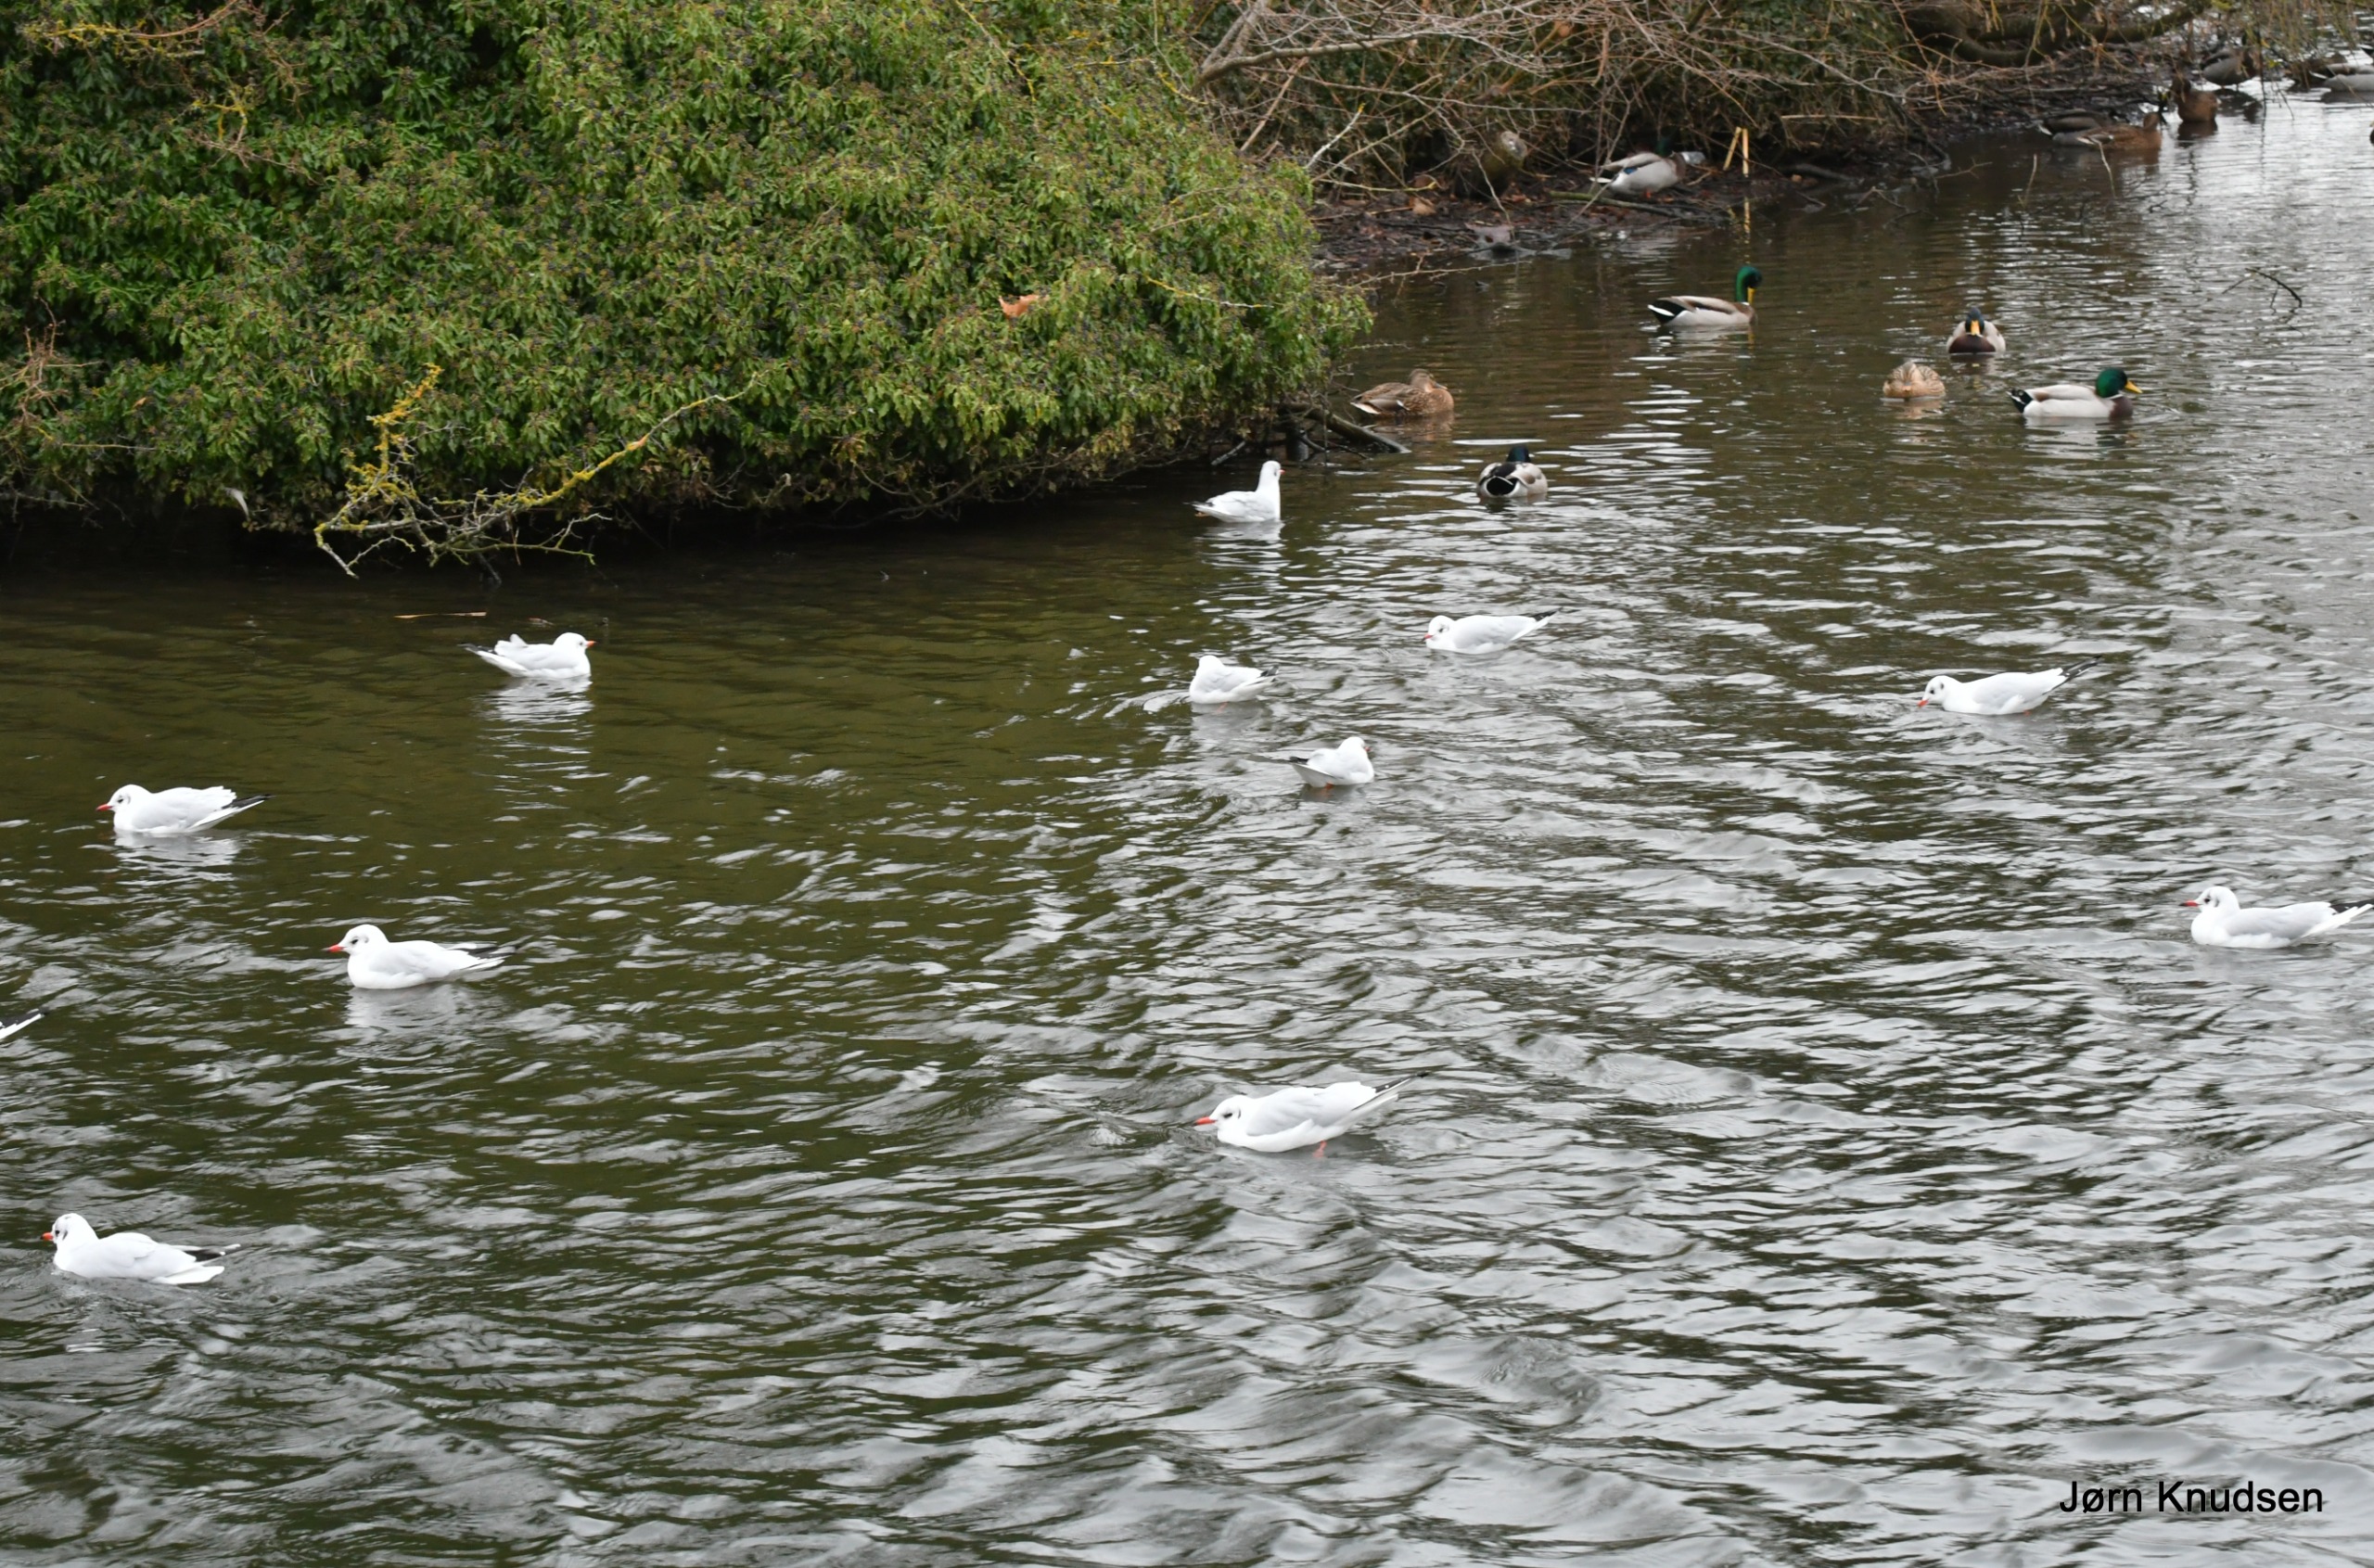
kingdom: Animalia
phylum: Chordata
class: Aves
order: Charadriiformes
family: Laridae
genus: Chroicocephalus
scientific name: Chroicocephalus ridibundus
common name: Hættemåge
